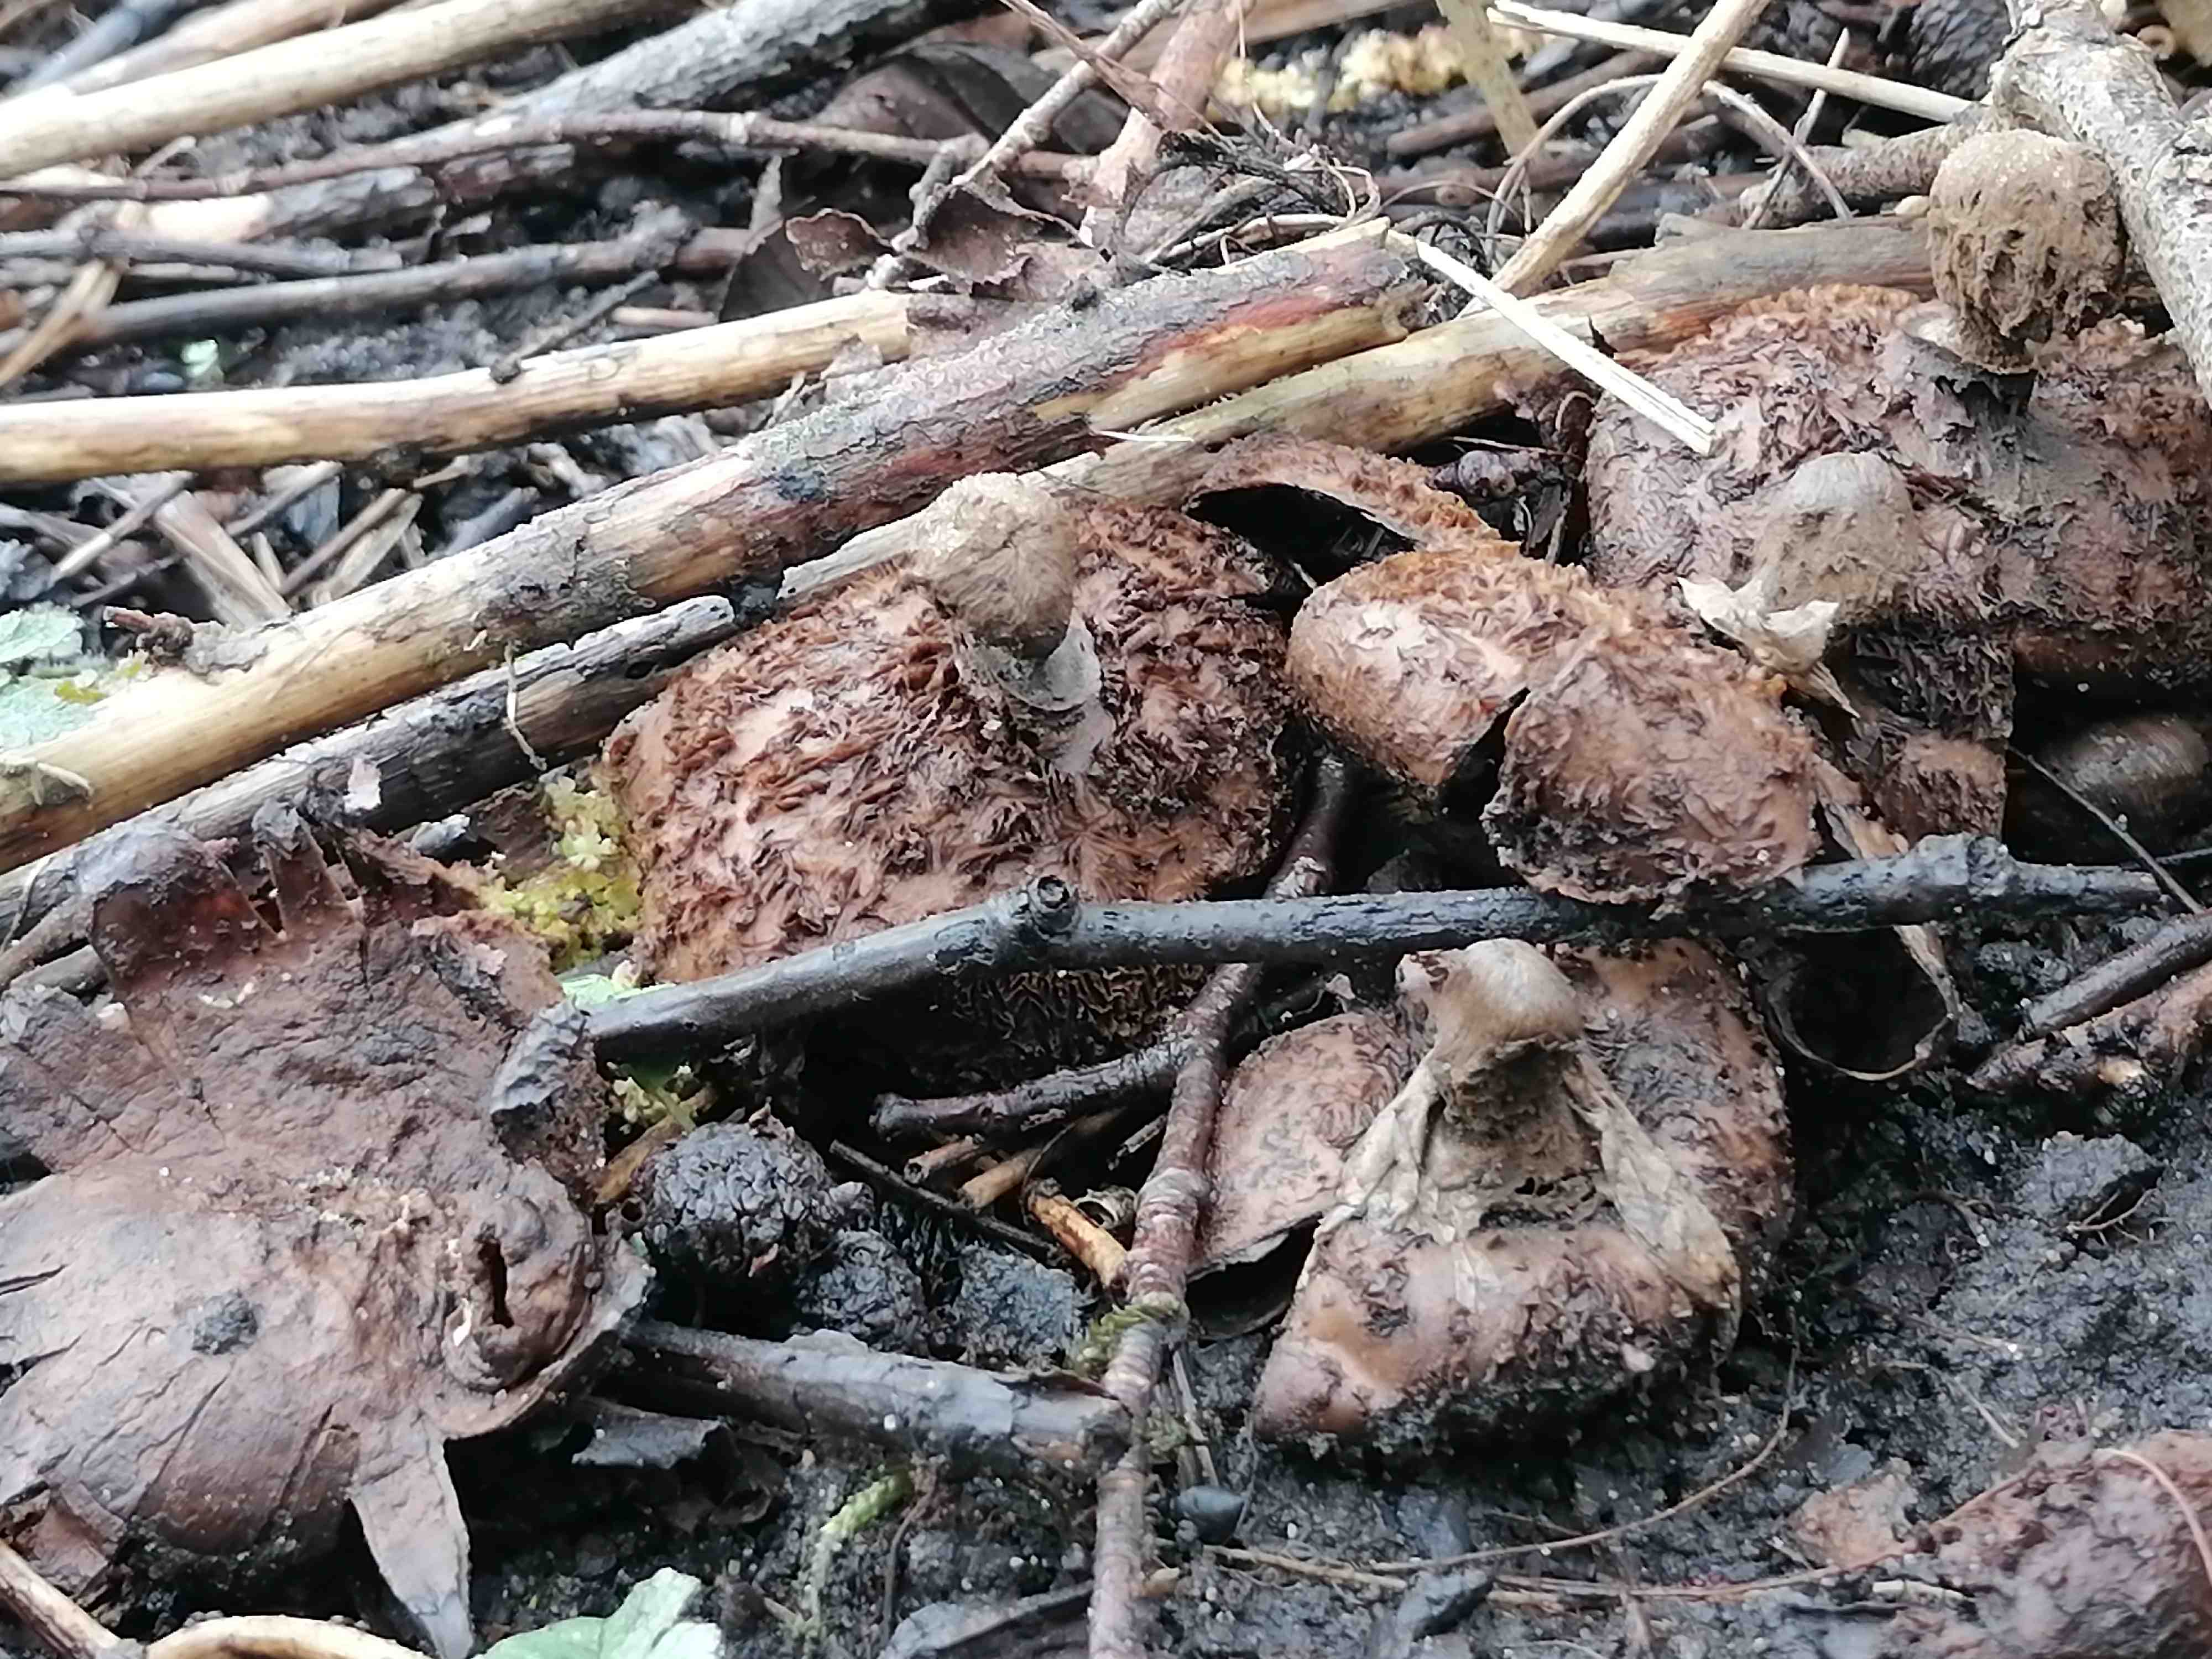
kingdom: Fungi
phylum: Basidiomycota
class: Agaricomycetes
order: Geastrales
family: Geastraceae
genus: Geastrum
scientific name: Geastrum melanocephalum
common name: håret stjernebold
